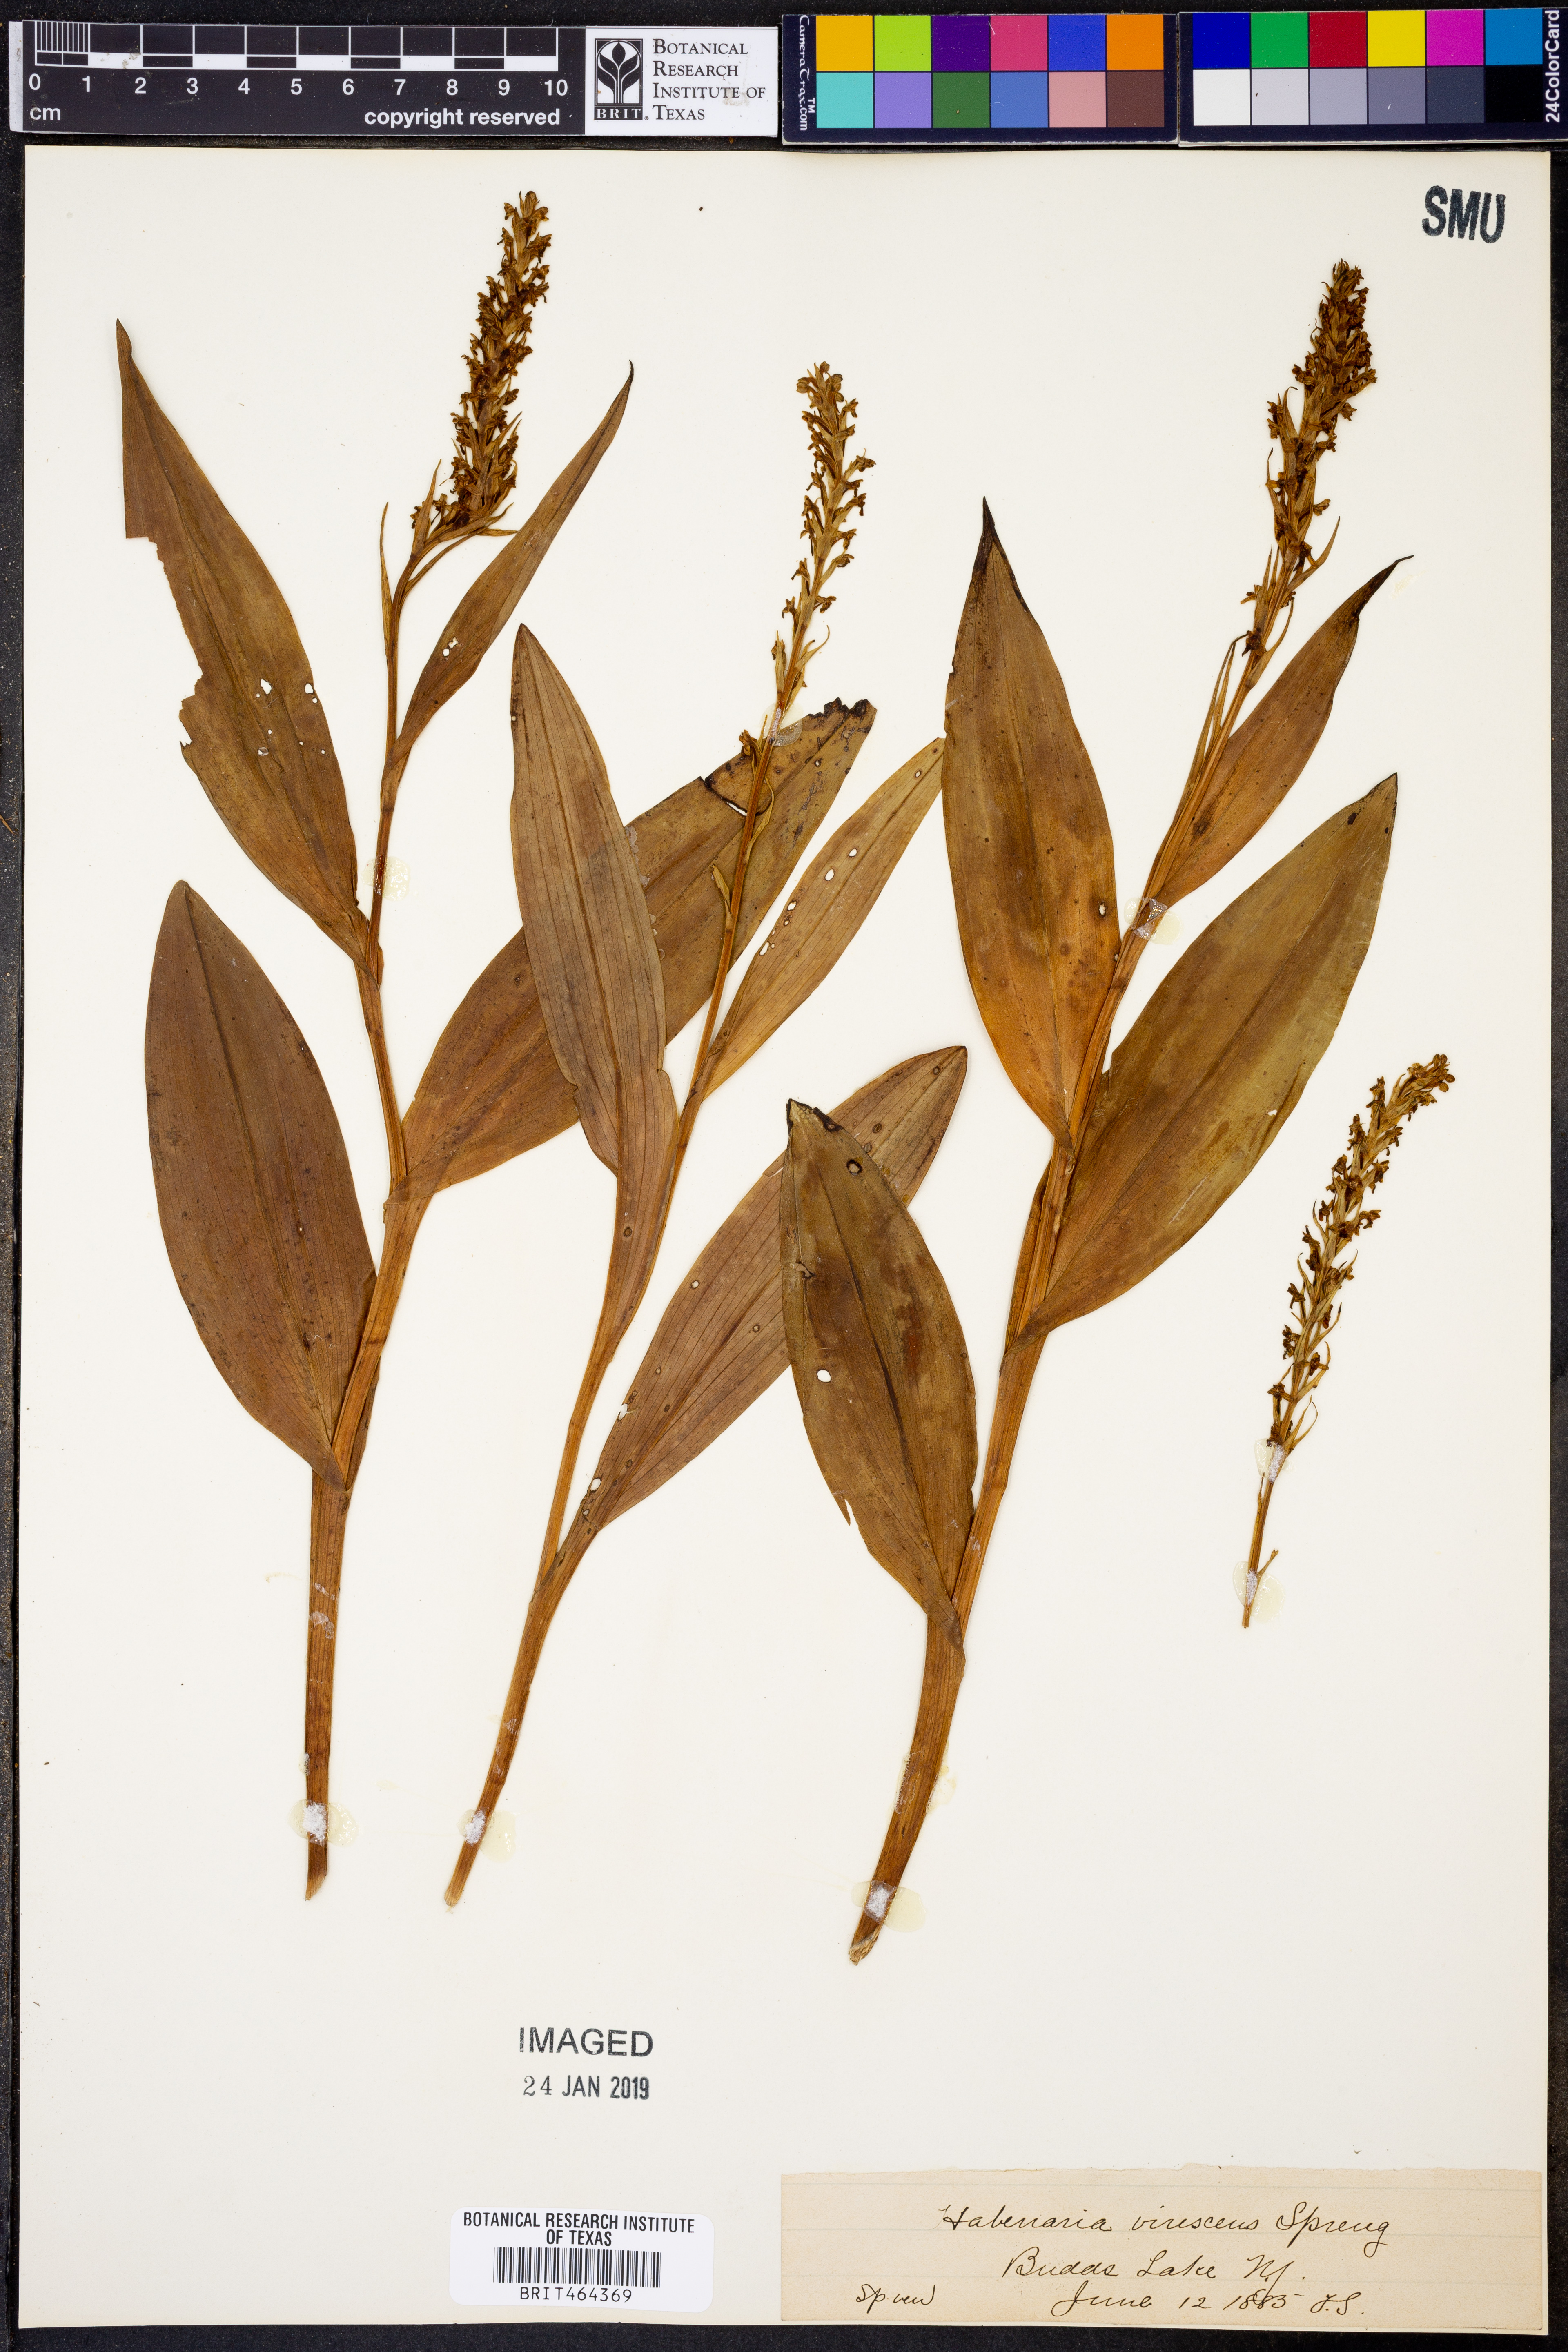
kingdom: Plantae
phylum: Tracheophyta
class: Liliopsida
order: Asparagales
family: Orchidaceae
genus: Platanthera
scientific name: Platanthera
